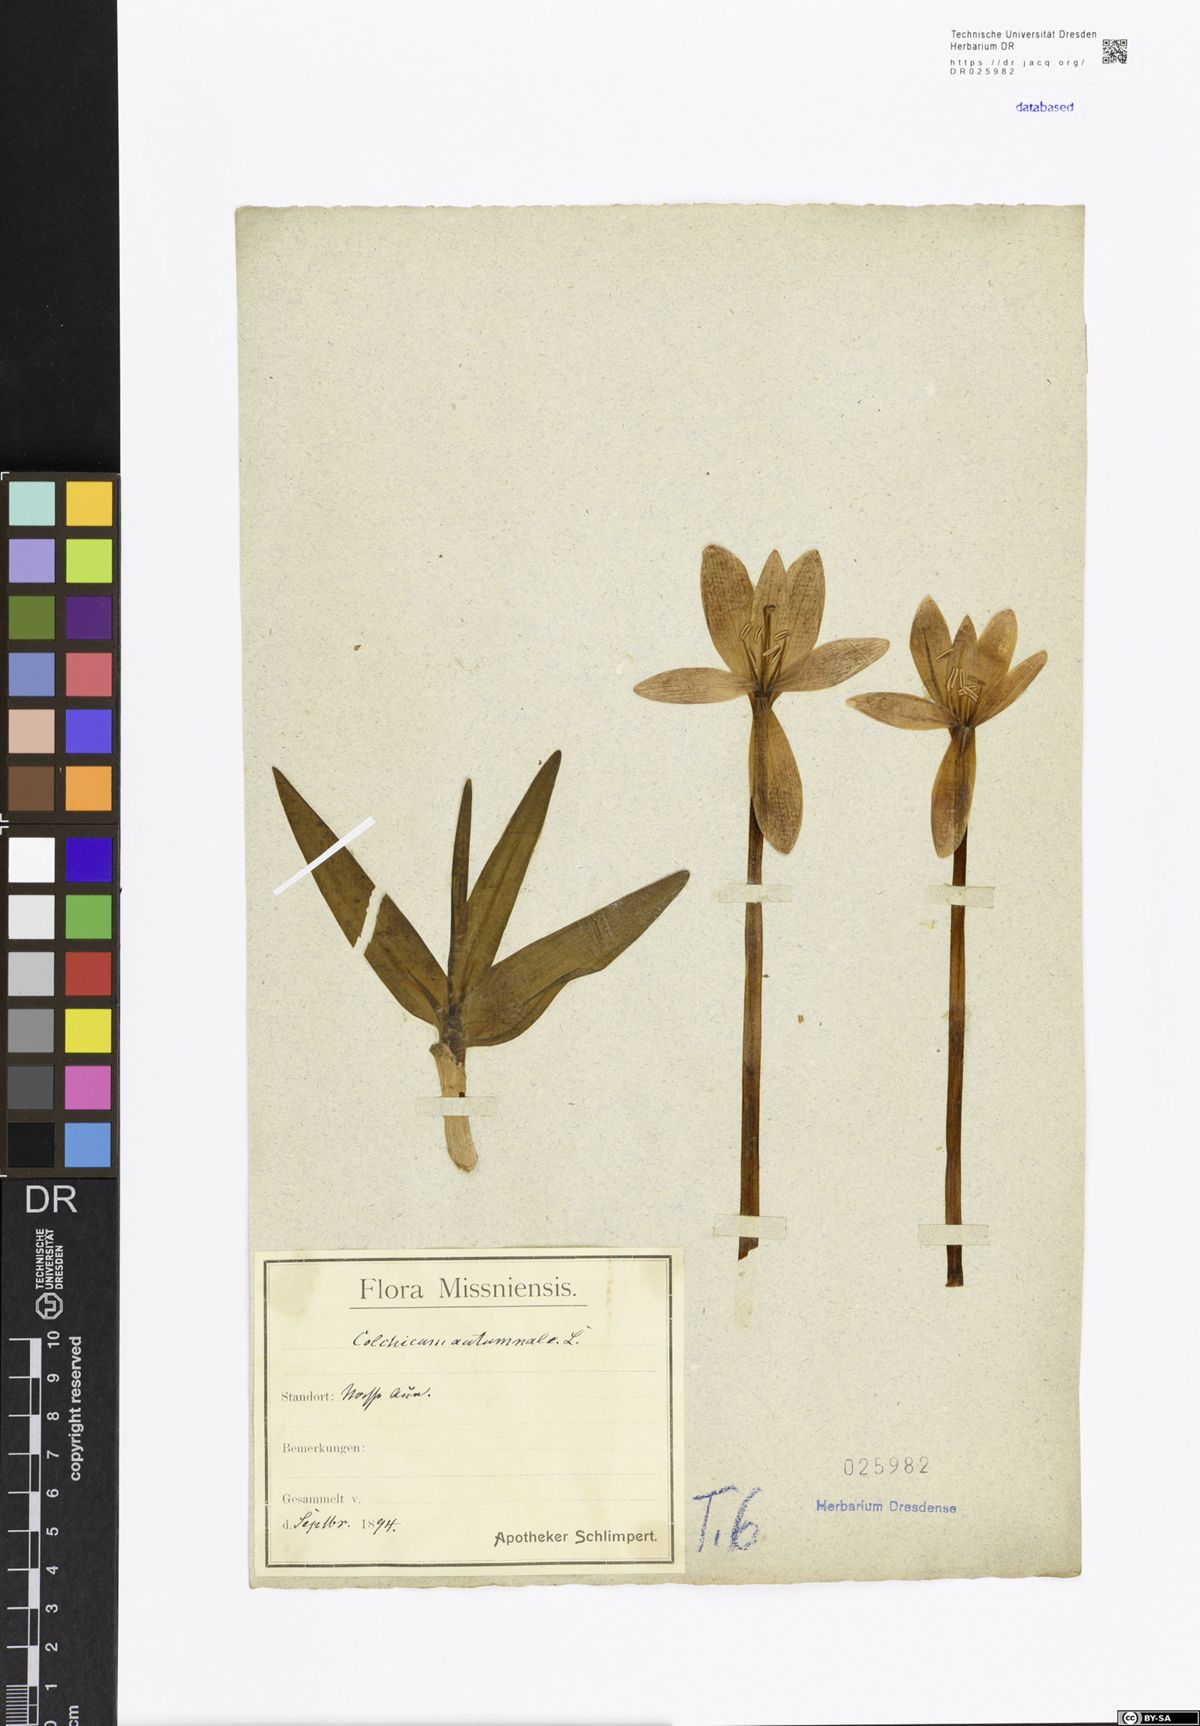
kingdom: Plantae
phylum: Tracheophyta
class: Liliopsida
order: Liliales
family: Colchicaceae
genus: Colchicum
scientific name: Colchicum autumnale
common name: Autumn crocus
